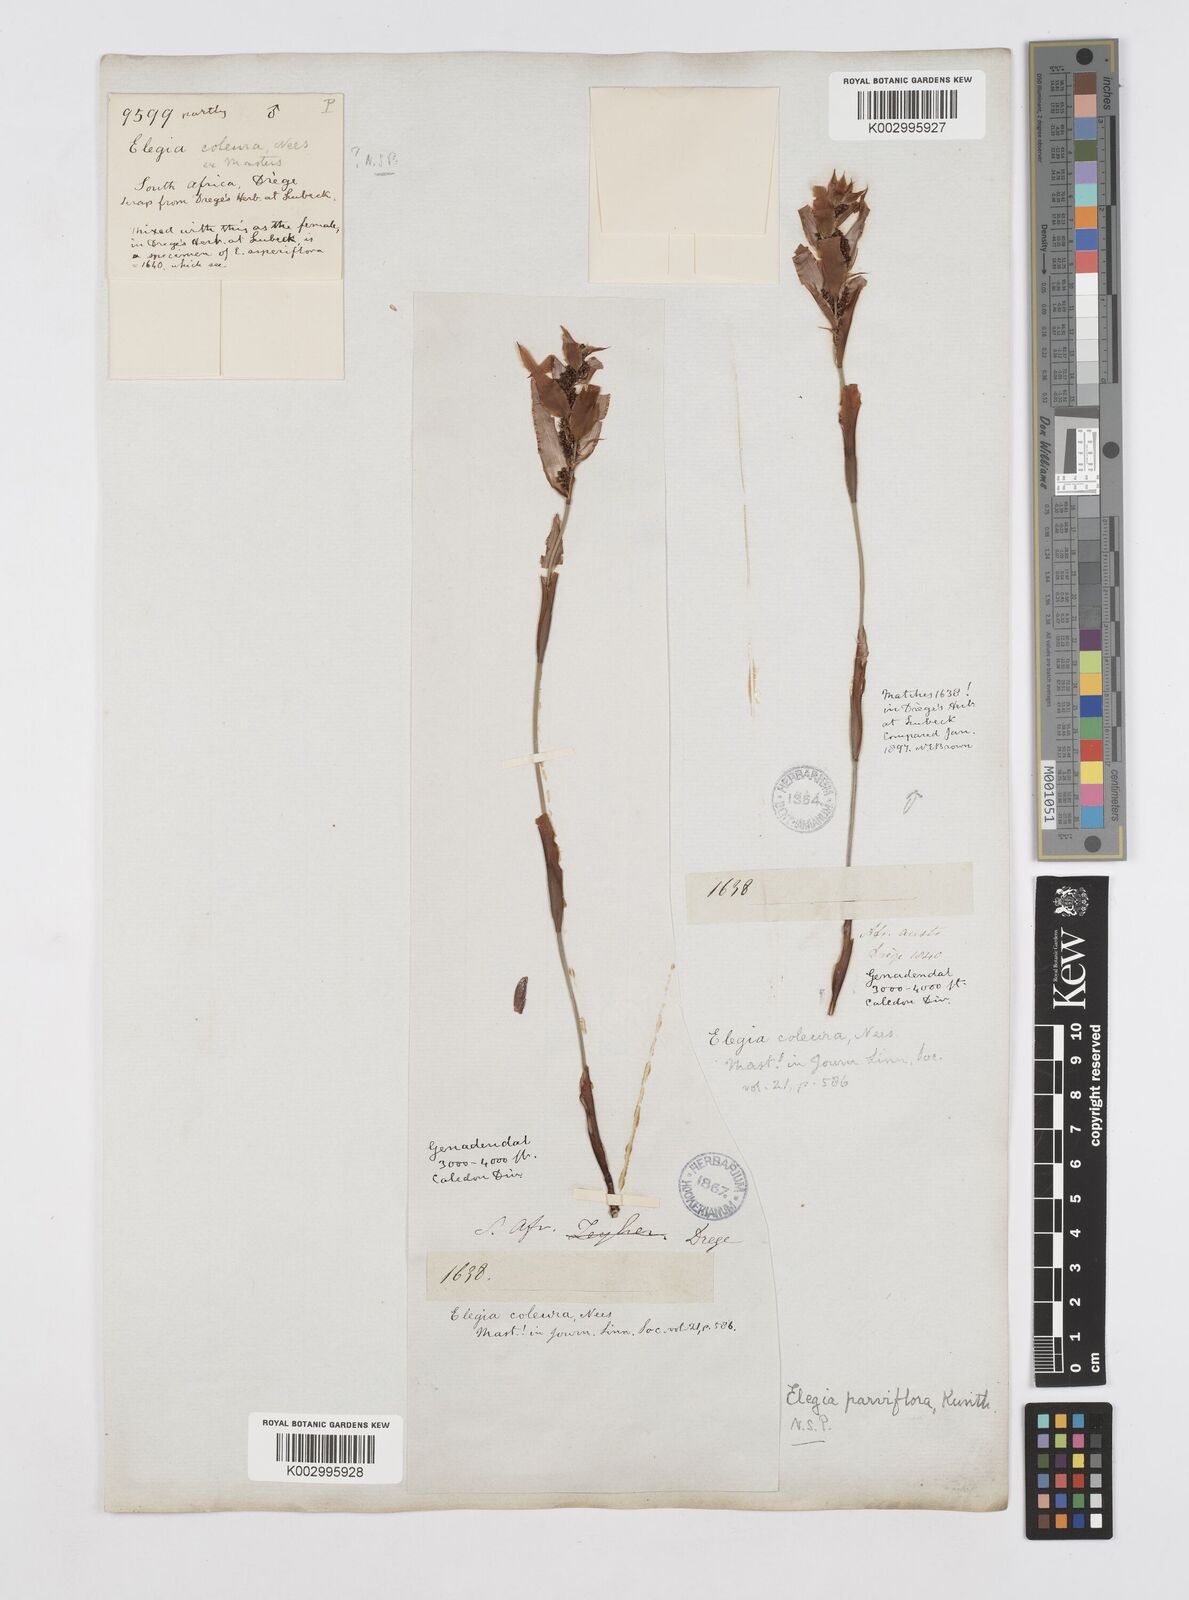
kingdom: Plantae
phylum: Tracheophyta
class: Liliopsida
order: Poales
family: Restionaceae
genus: Cannomois
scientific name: Cannomois parviflora
